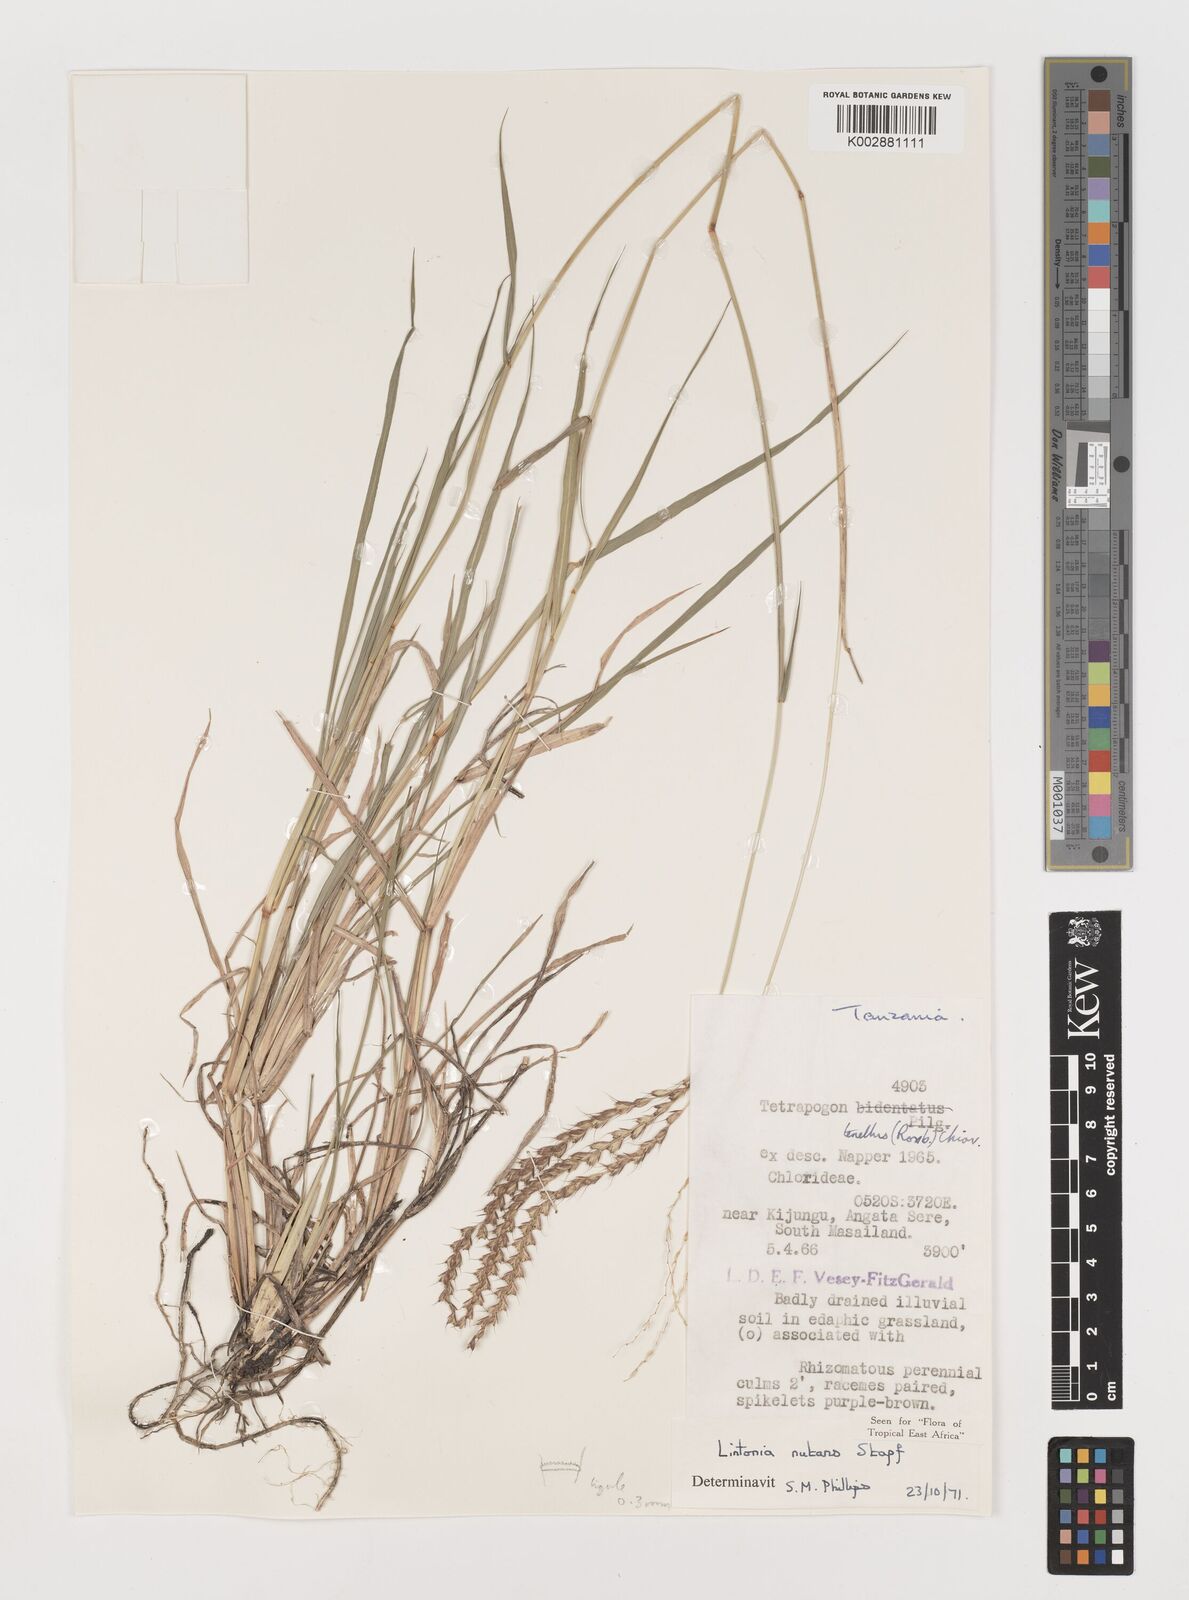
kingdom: Plantae
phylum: Tracheophyta
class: Liliopsida
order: Poales
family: Poaceae
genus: Chloris
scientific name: Chloris nutans
